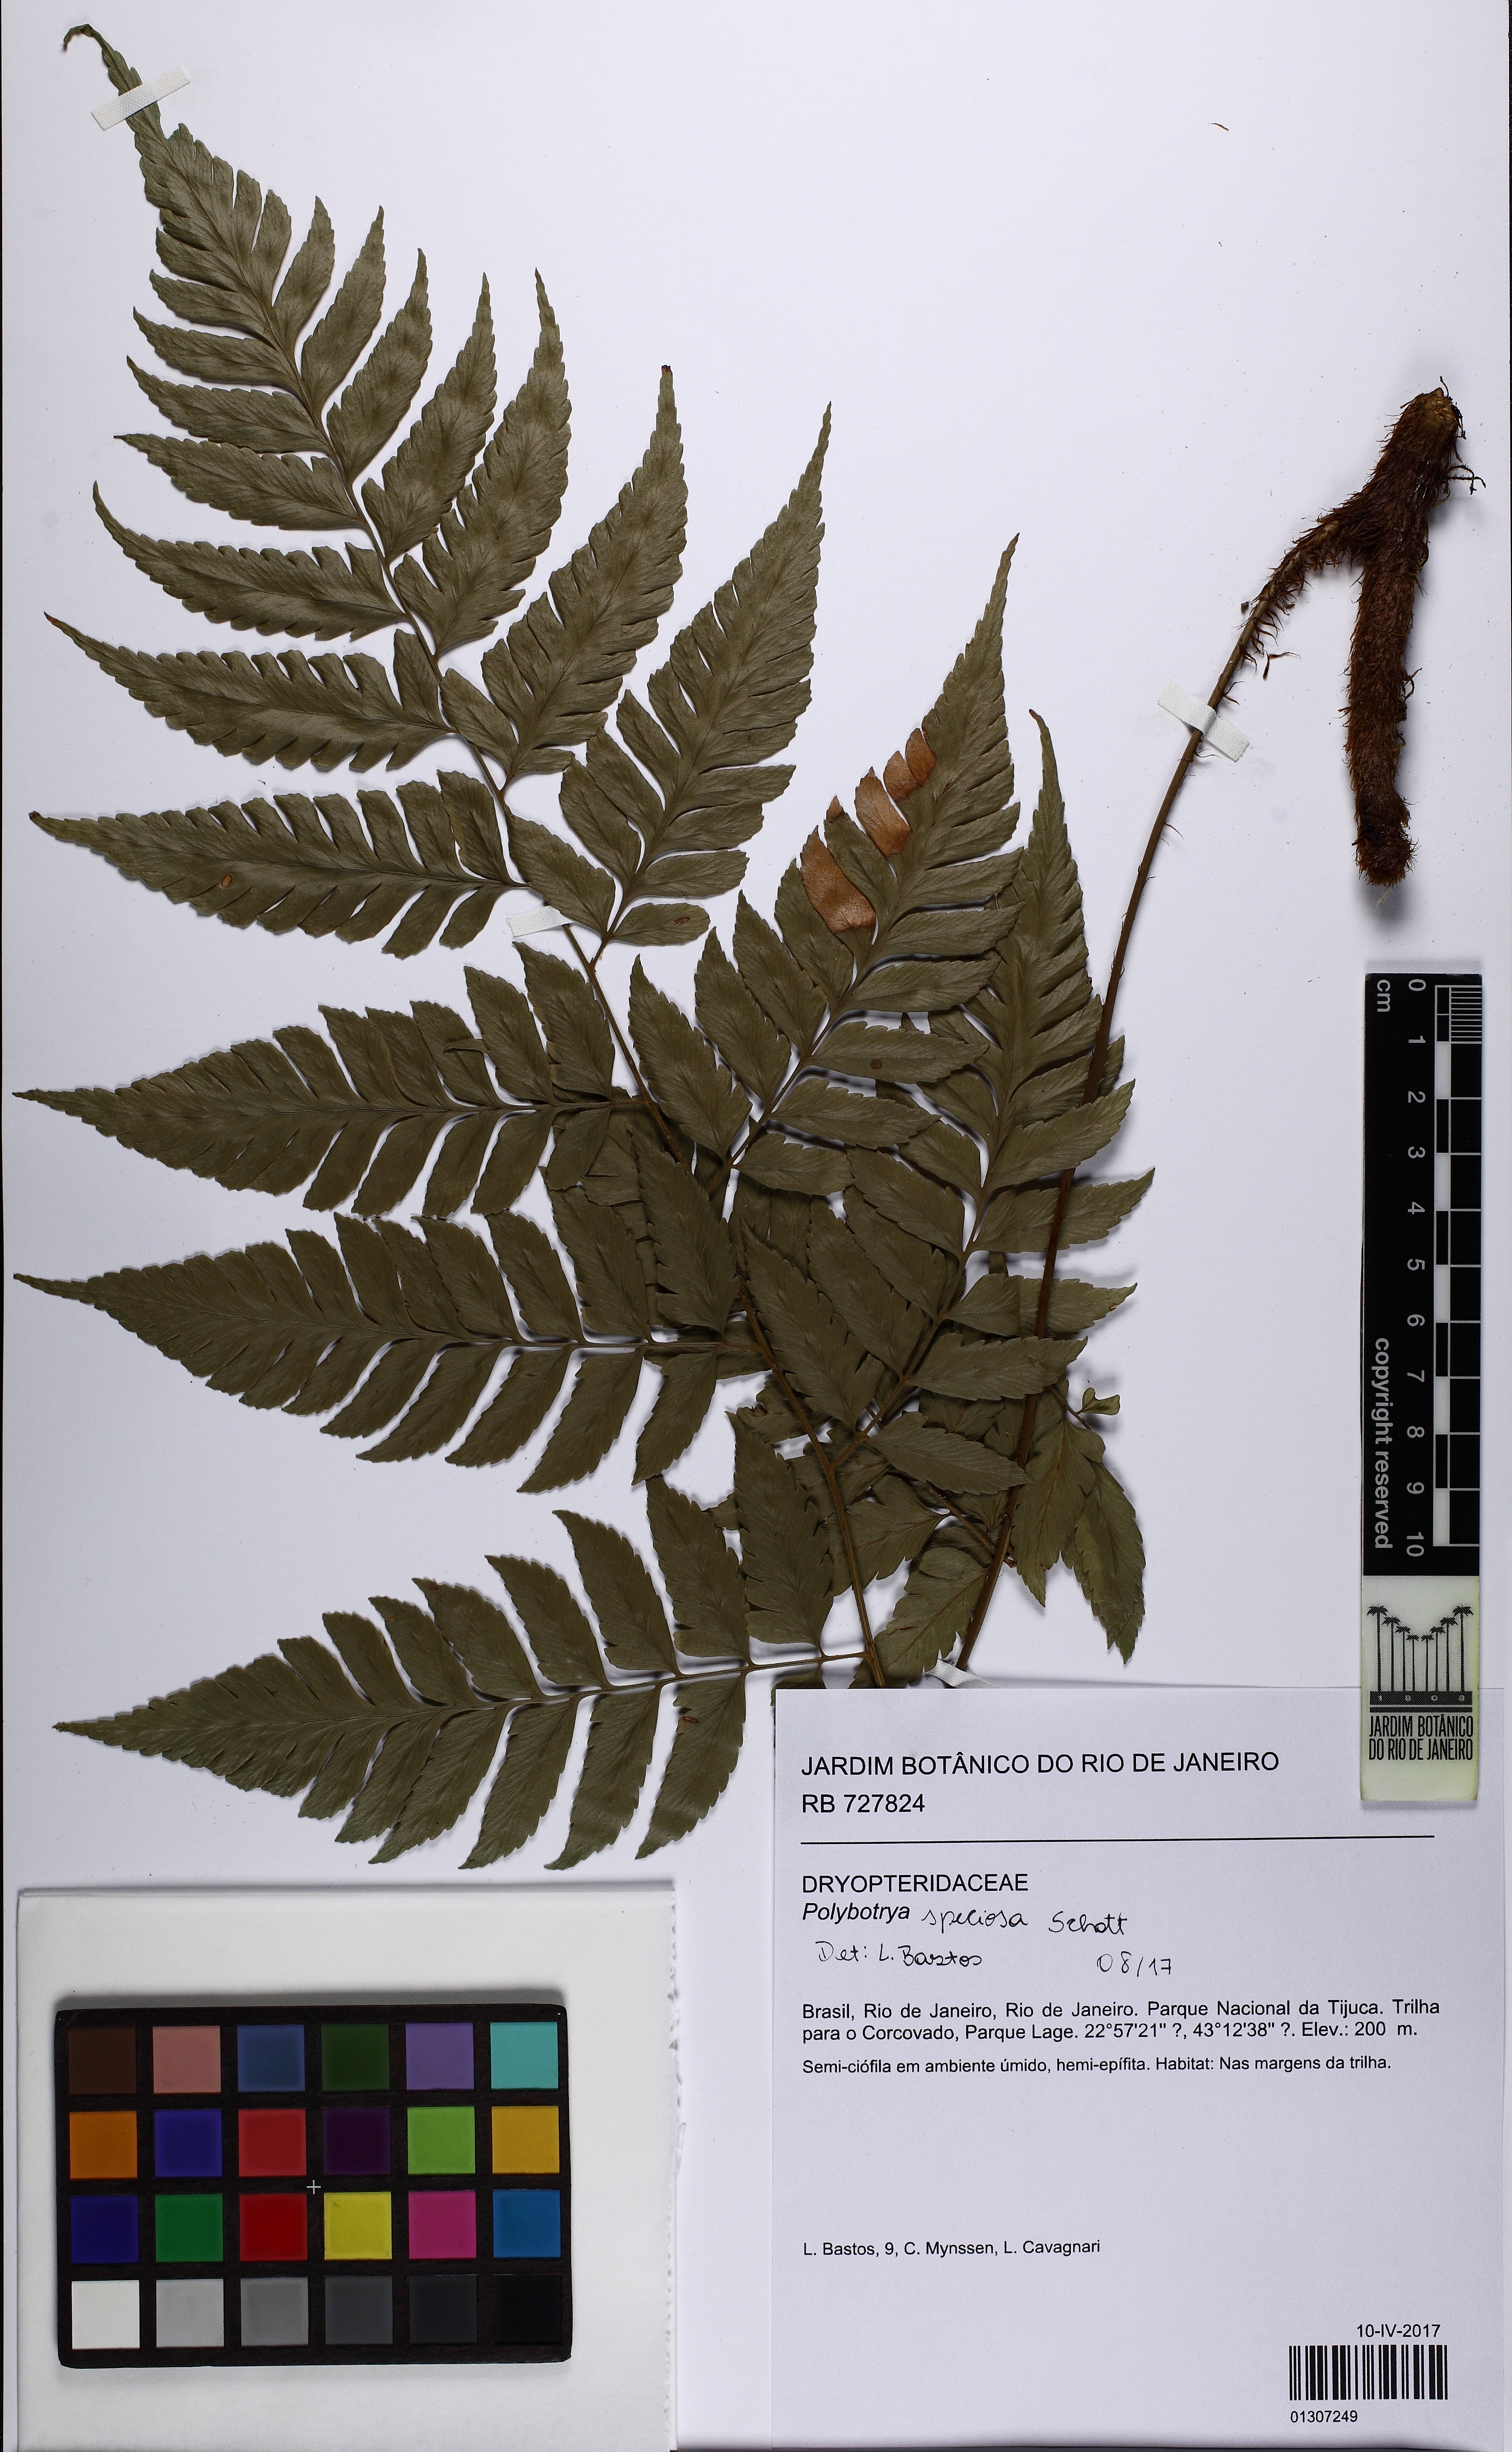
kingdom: Plantae
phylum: Tracheophyta
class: Polypodiopsida
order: Polypodiales
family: Dryopteridaceae
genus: Polybotrya
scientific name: Polybotrya speciosa
